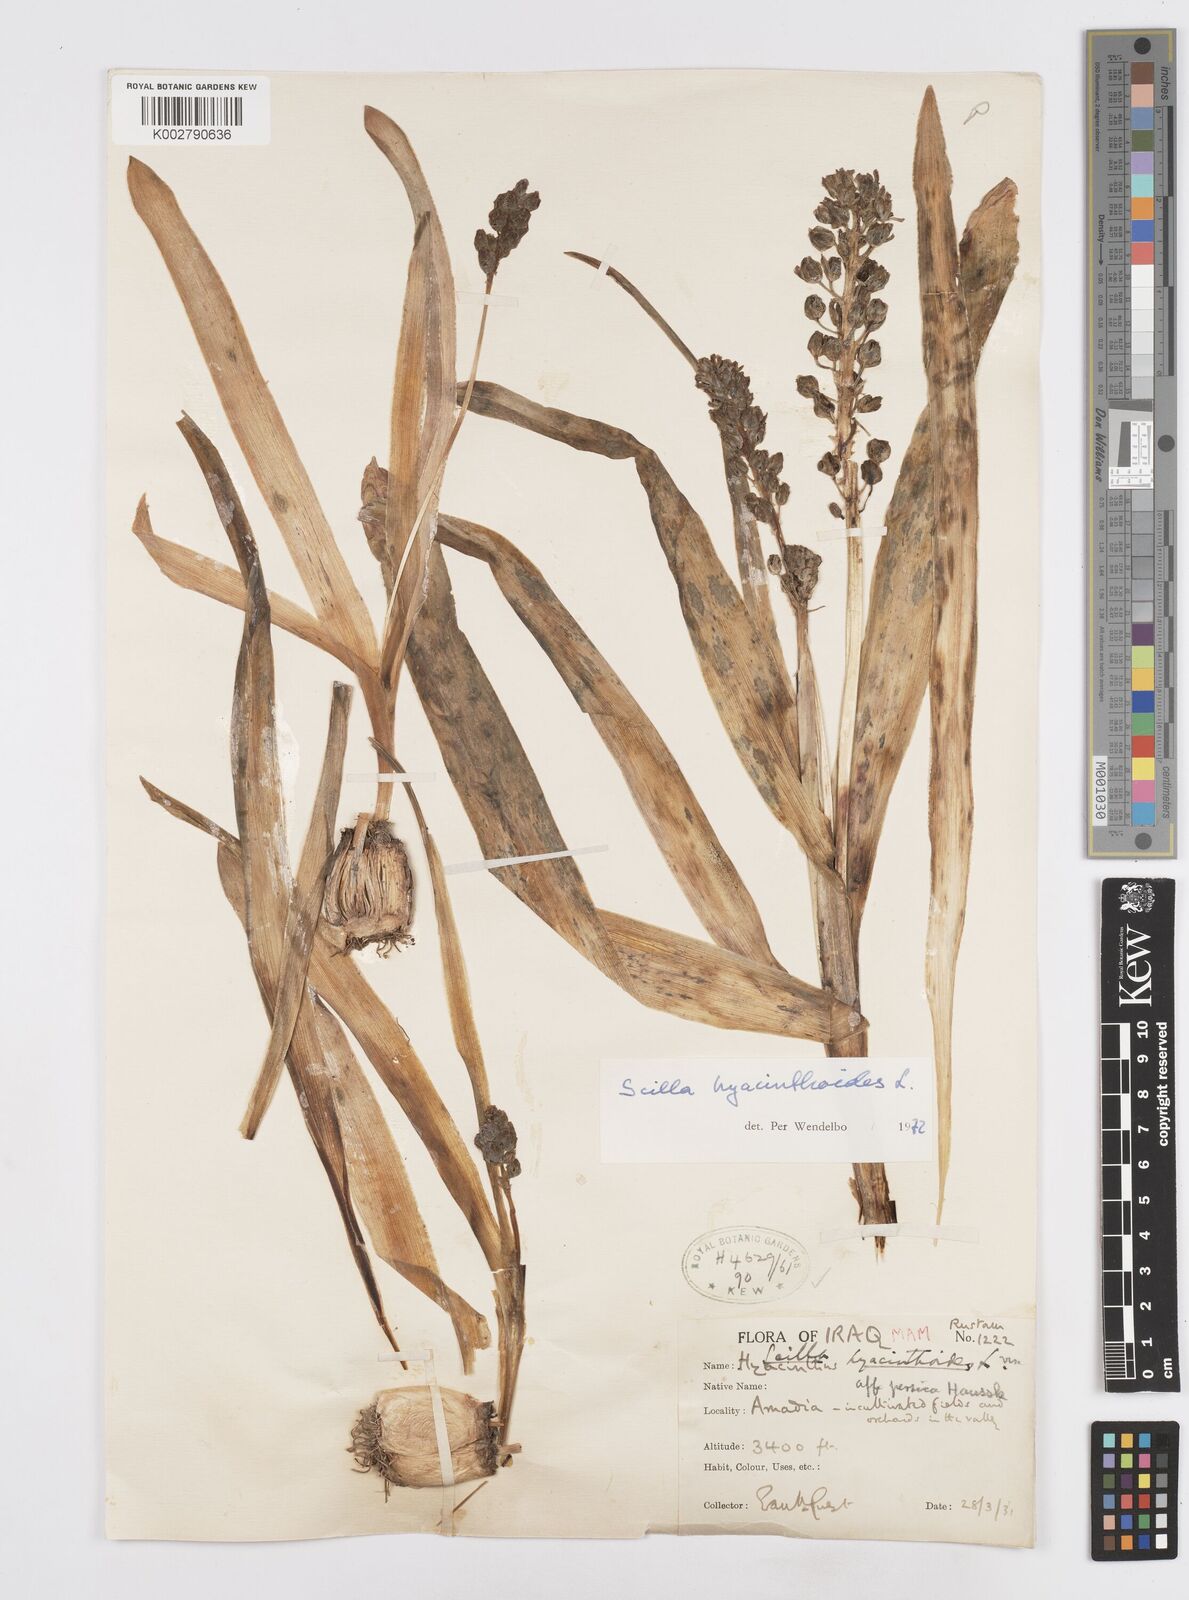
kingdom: Plantae
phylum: Tracheophyta
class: Liliopsida
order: Asparagales
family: Asparagaceae
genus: Scilla
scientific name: Scilla hyacinthoides
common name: Scilla
